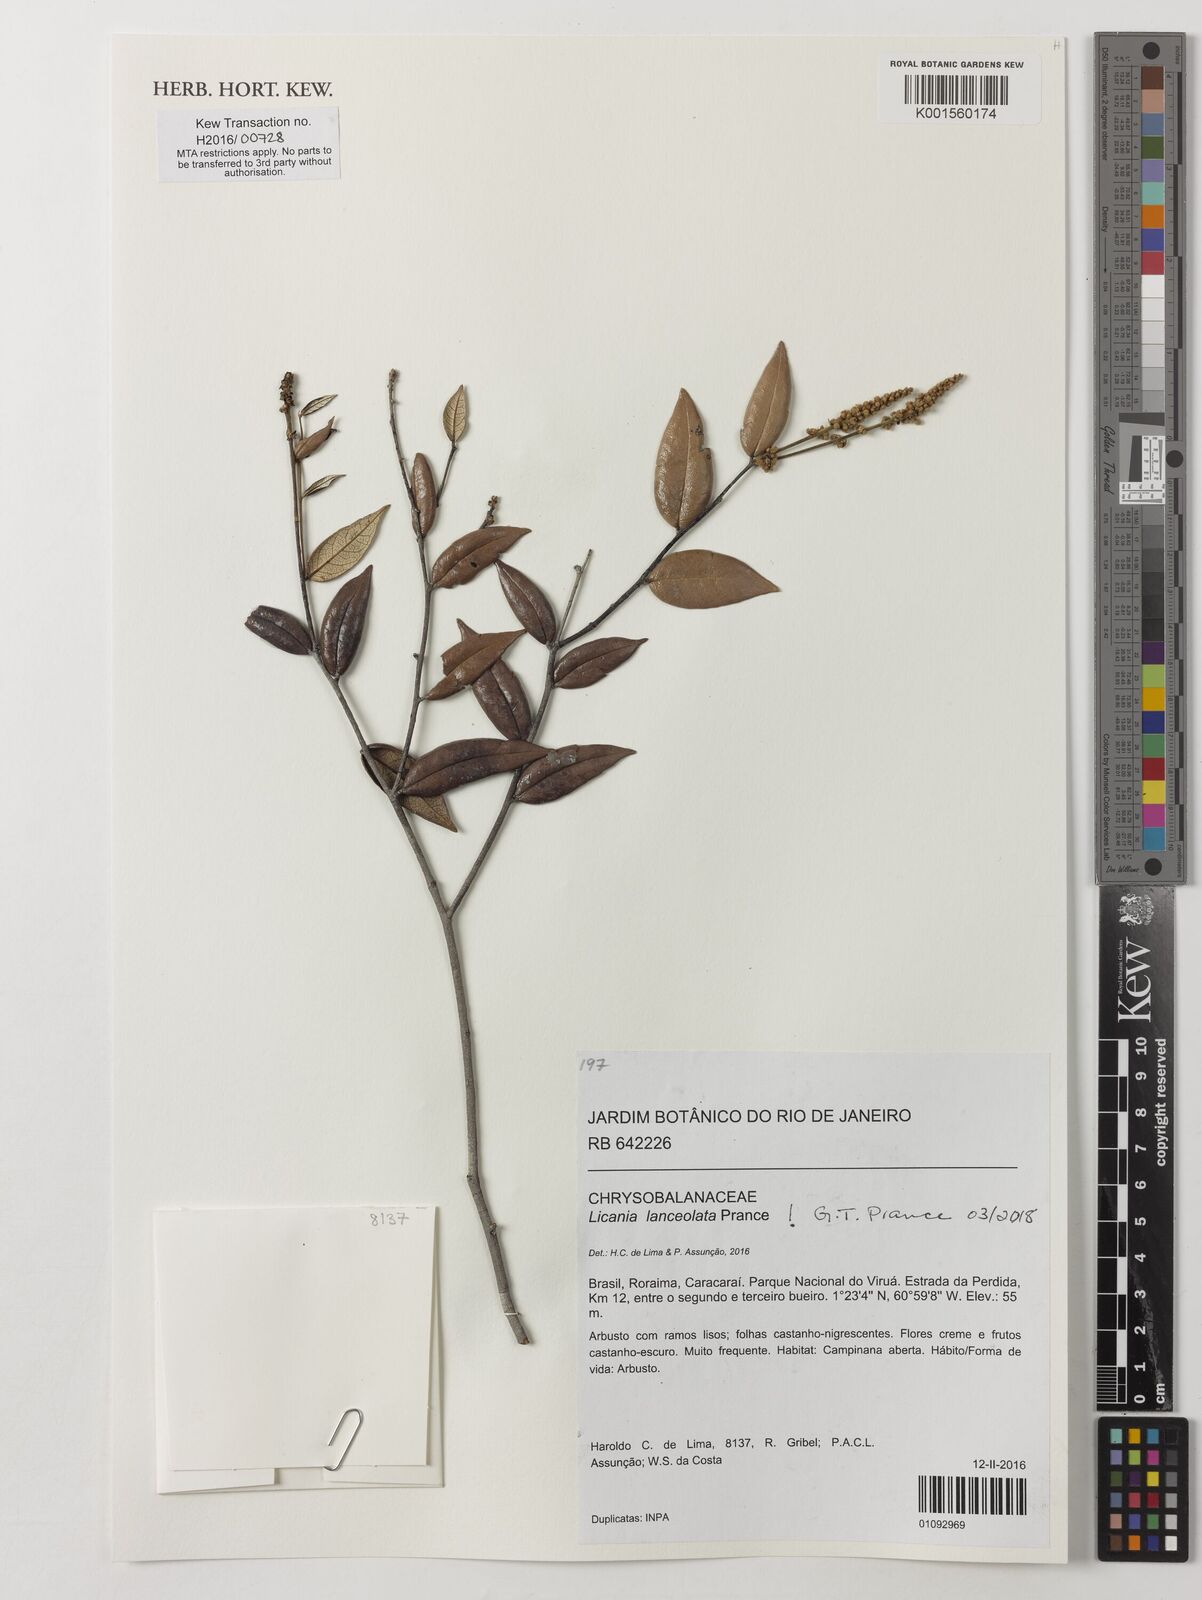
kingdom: Plantae
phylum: Tracheophyta
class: Magnoliopsida
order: Malpighiales
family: Chrysobalanaceae
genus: Licania
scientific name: Licania lanceolata
